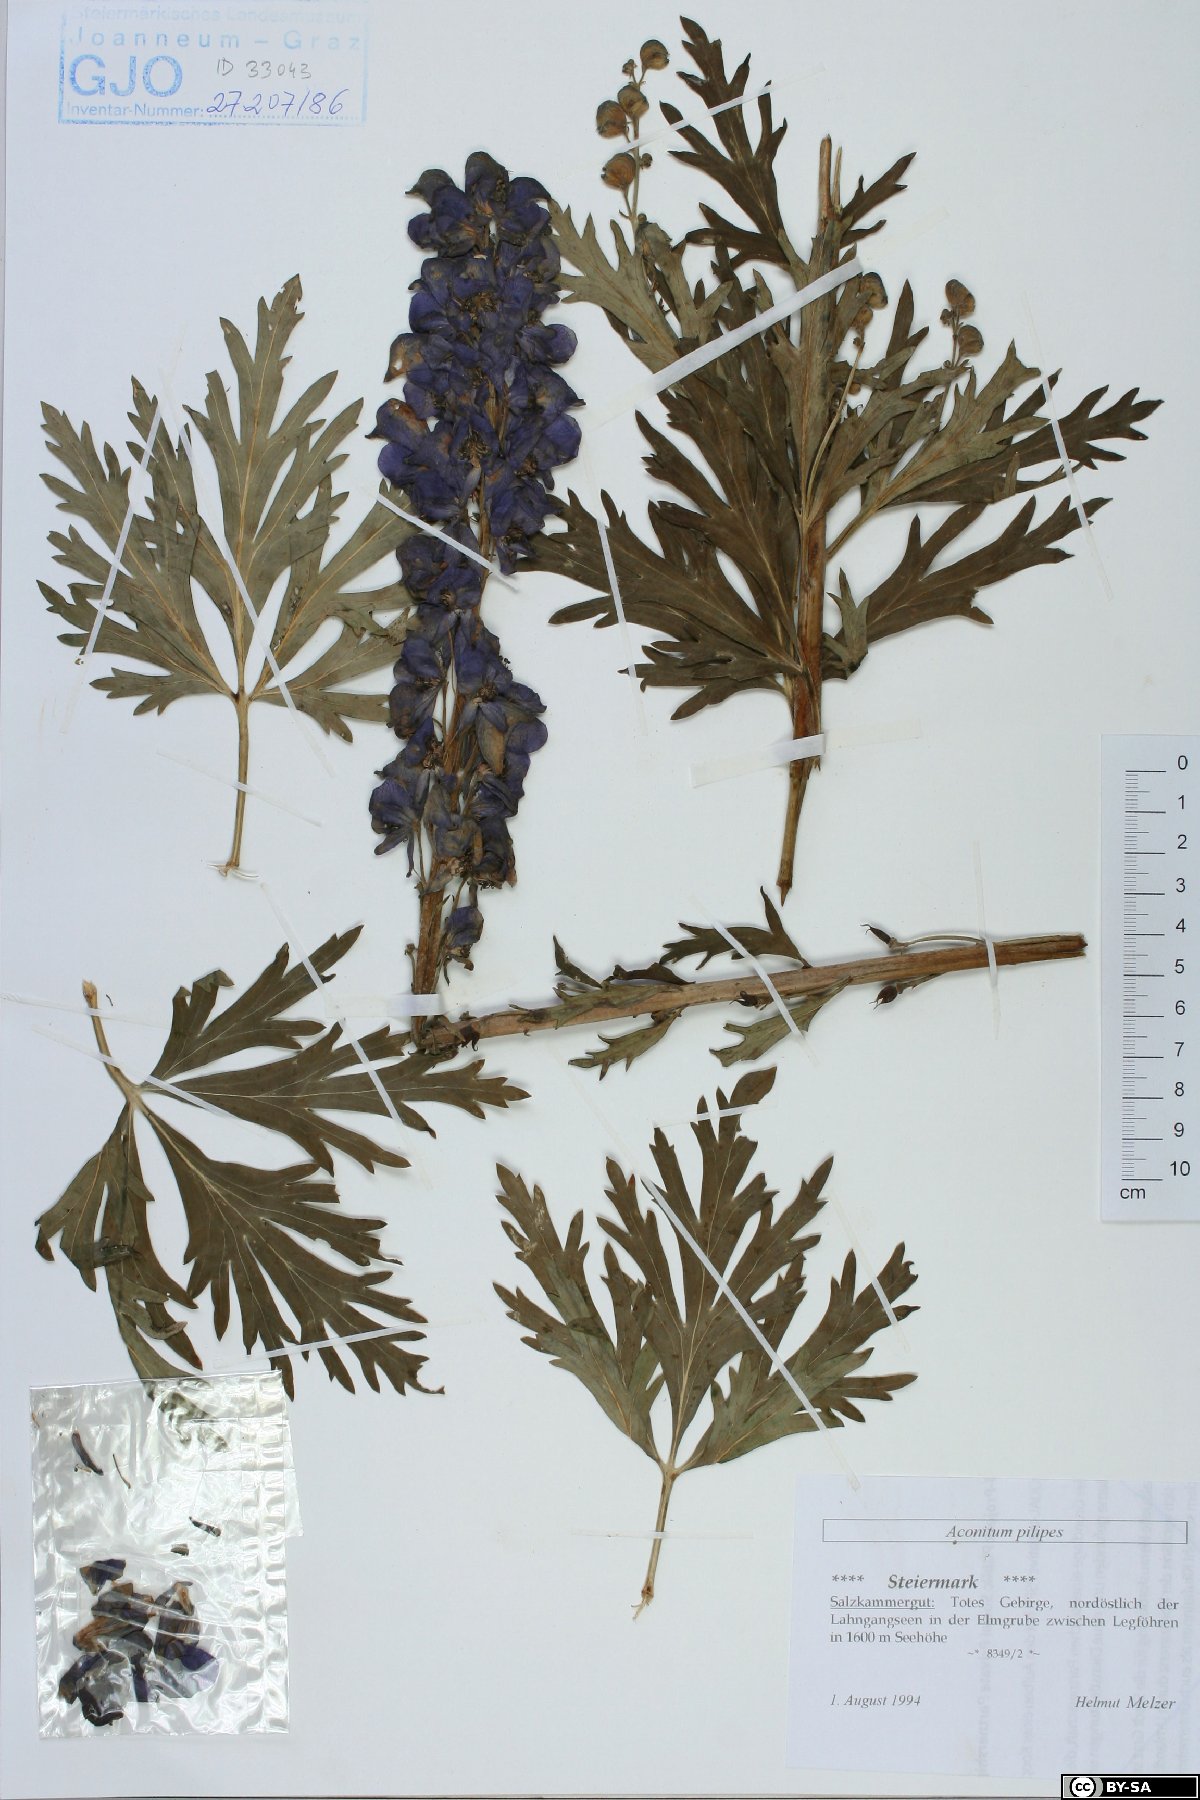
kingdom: Plantae
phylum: Tracheophyta
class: Magnoliopsida
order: Ranunculales
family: Ranunculaceae
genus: Aconitum
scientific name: Aconitum pilipes
